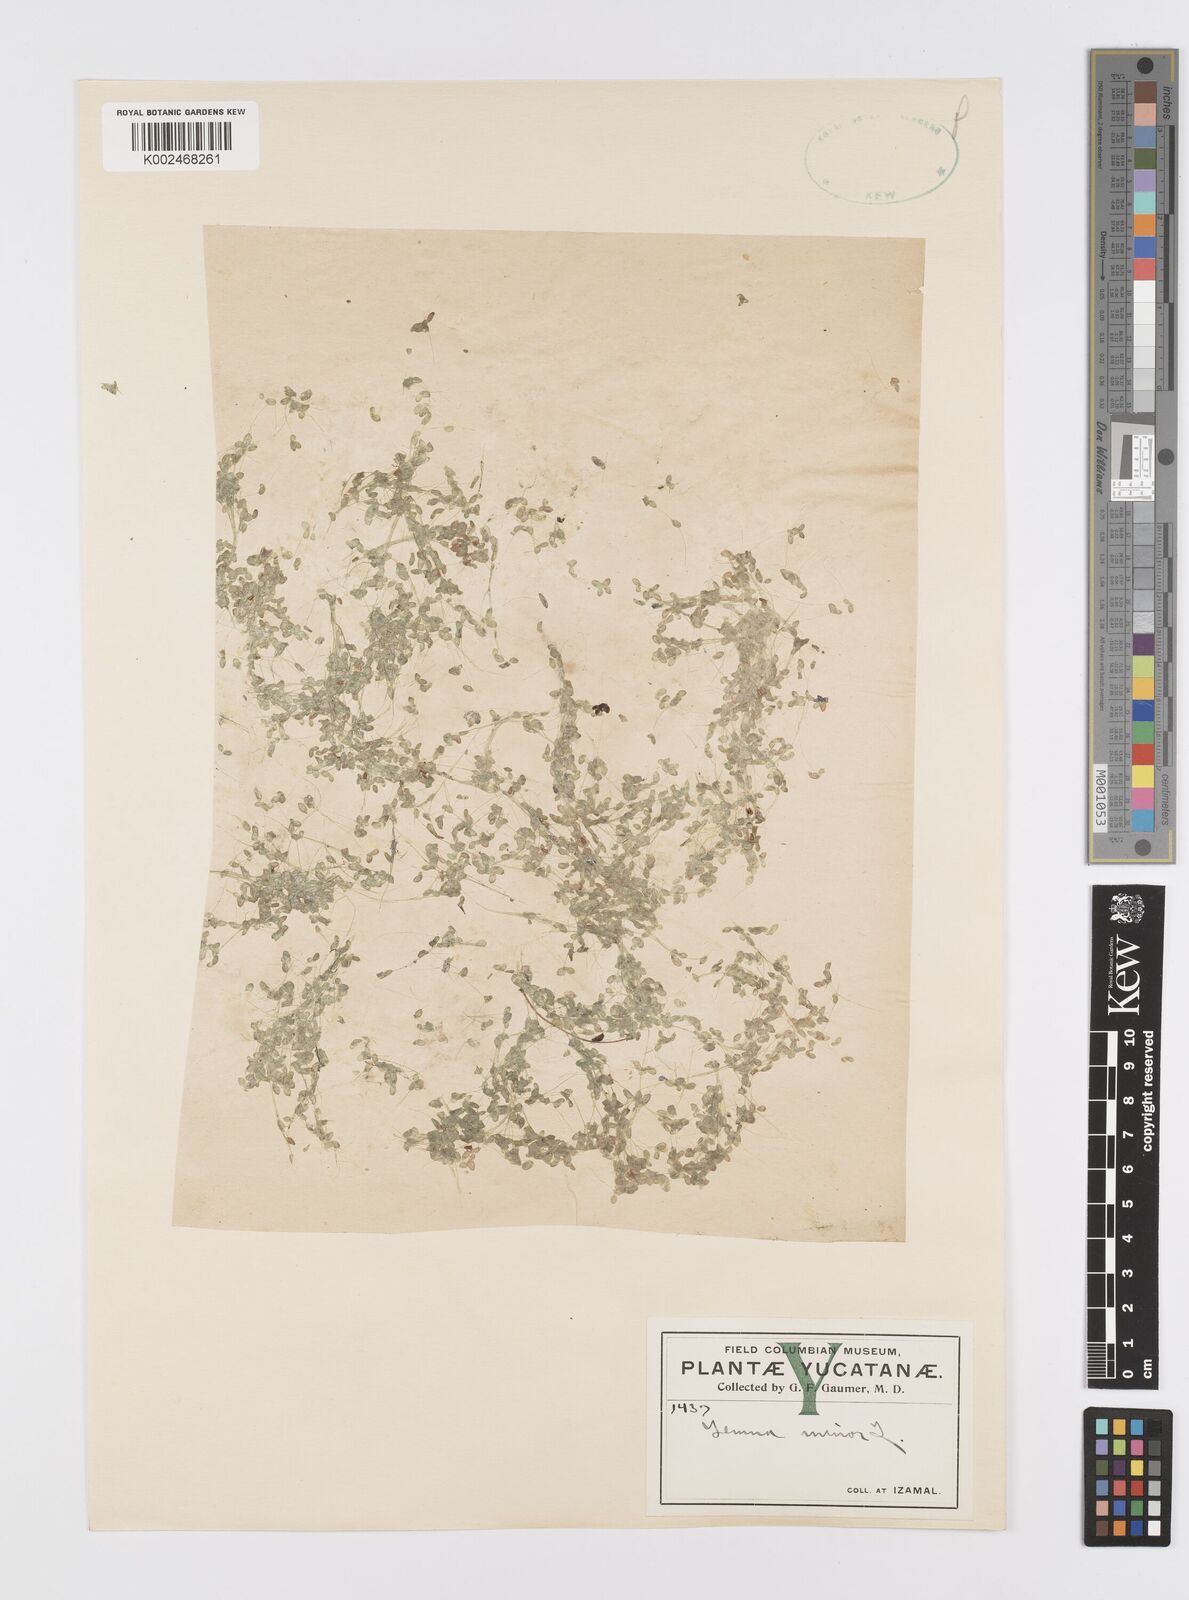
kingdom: Plantae
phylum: Tracheophyta
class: Liliopsida
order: Alismatales
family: Araceae
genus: Lemna
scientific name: Lemna minor
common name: Common duckweed
